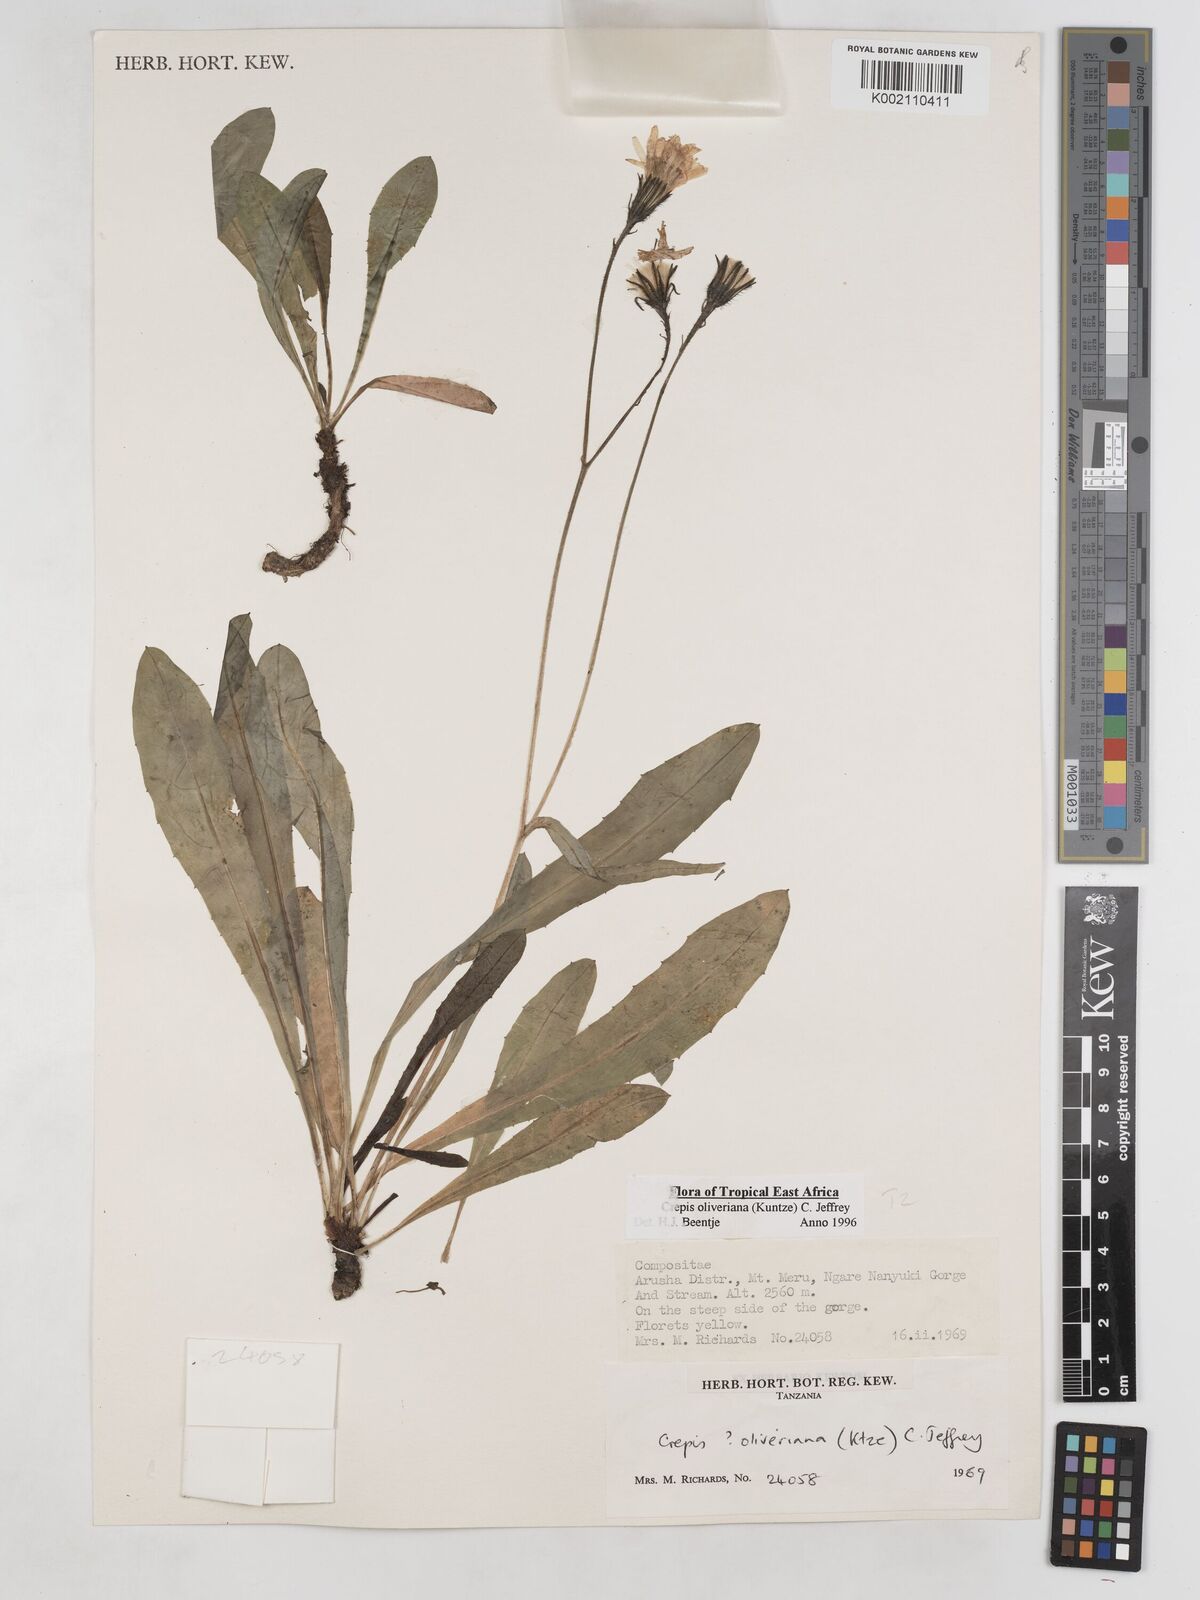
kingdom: Plantae
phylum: Tracheophyta
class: Magnoliopsida
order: Asterales
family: Asteraceae
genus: Crepis
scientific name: Crepis hypochoeridea
